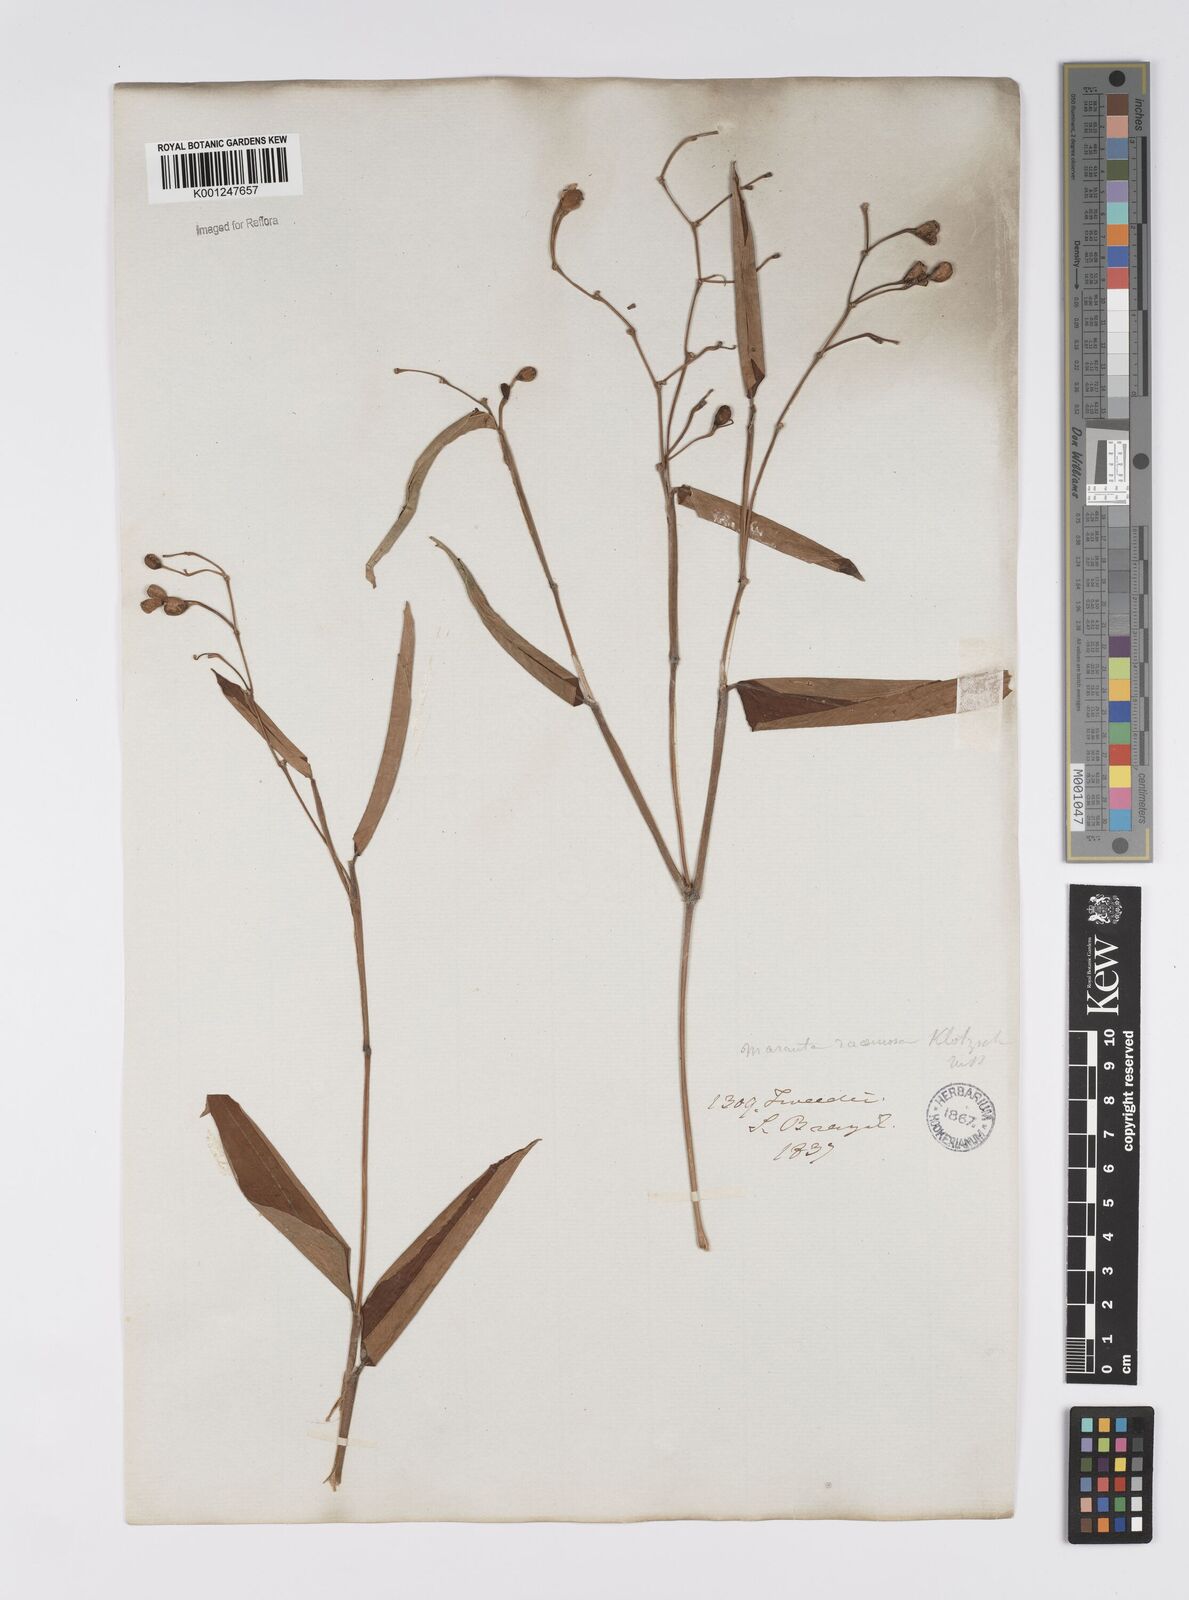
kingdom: Plantae
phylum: Tracheophyta
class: Liliopsida
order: Zingiberales
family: Marantaceae
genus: Stromanthe
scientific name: Stromanthe tonckat
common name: Stromanthe
